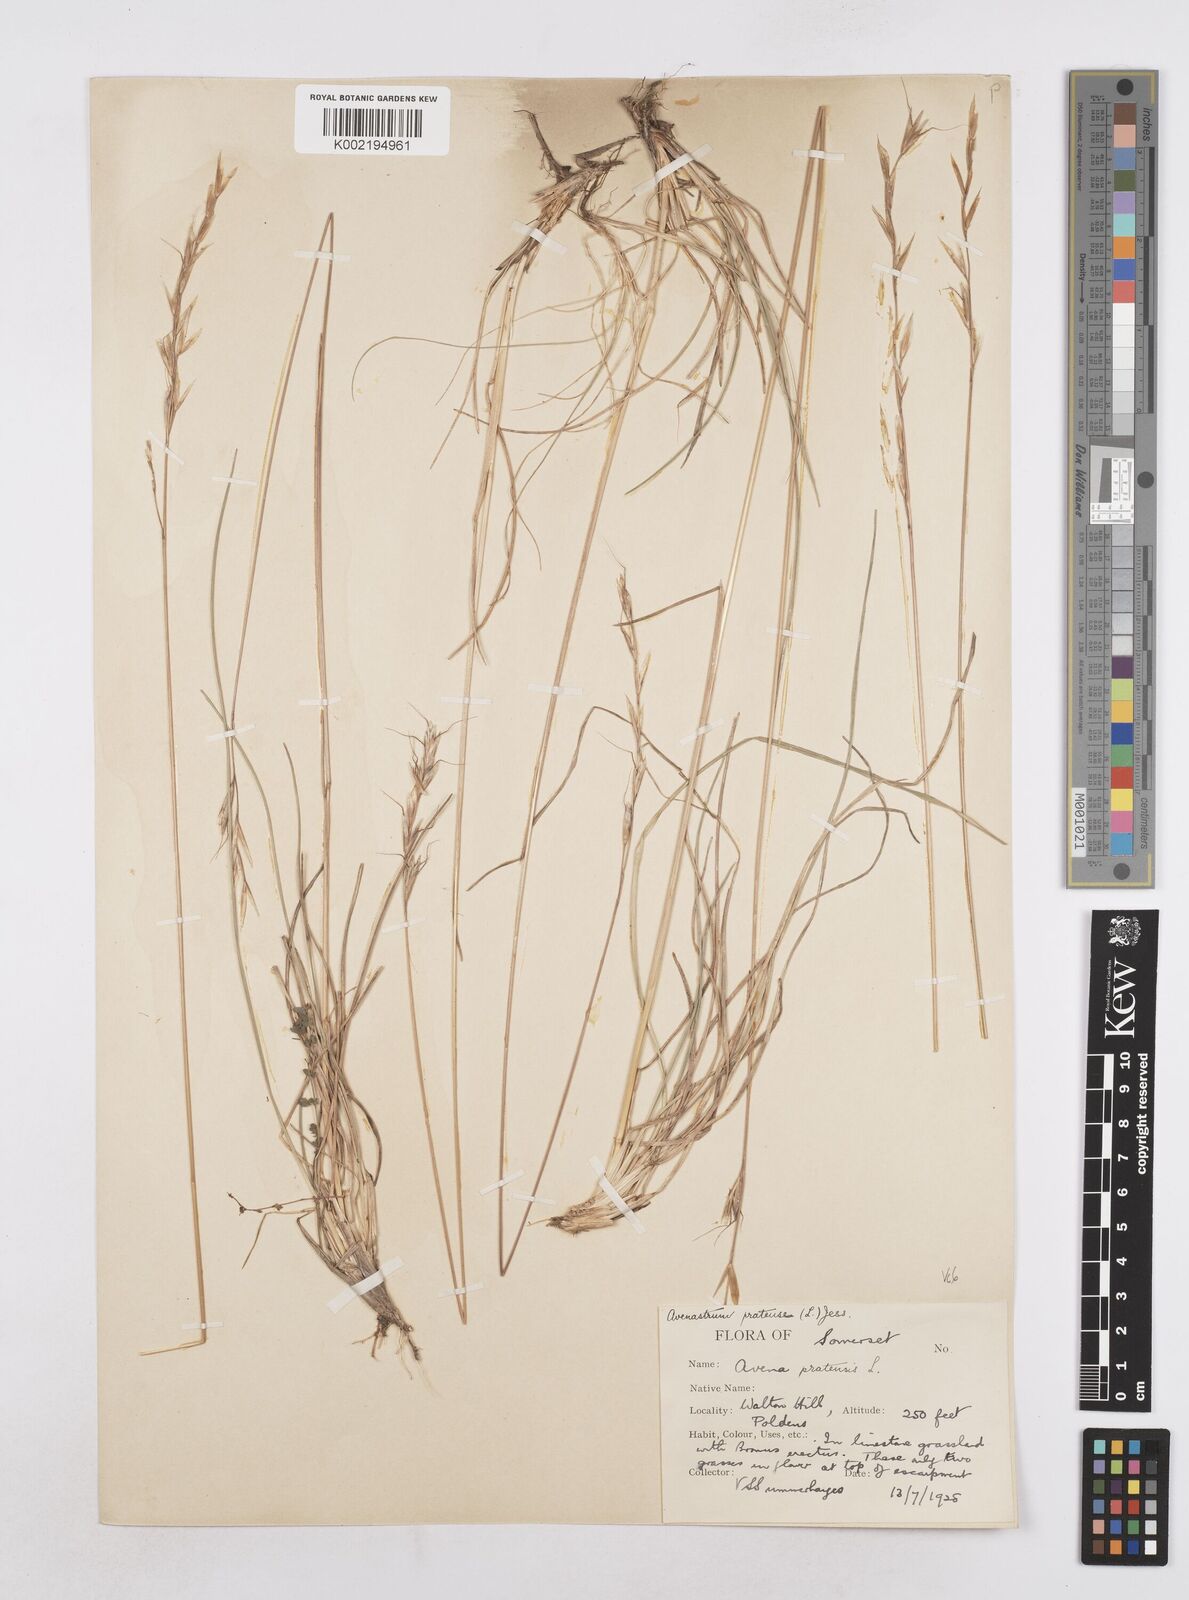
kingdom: Plantae
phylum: Tracheophyta
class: Liliopsida
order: Poales
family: Poaceae
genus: Helictochloa
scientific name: Helictochloa pratensis
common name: Meadow oat grass
